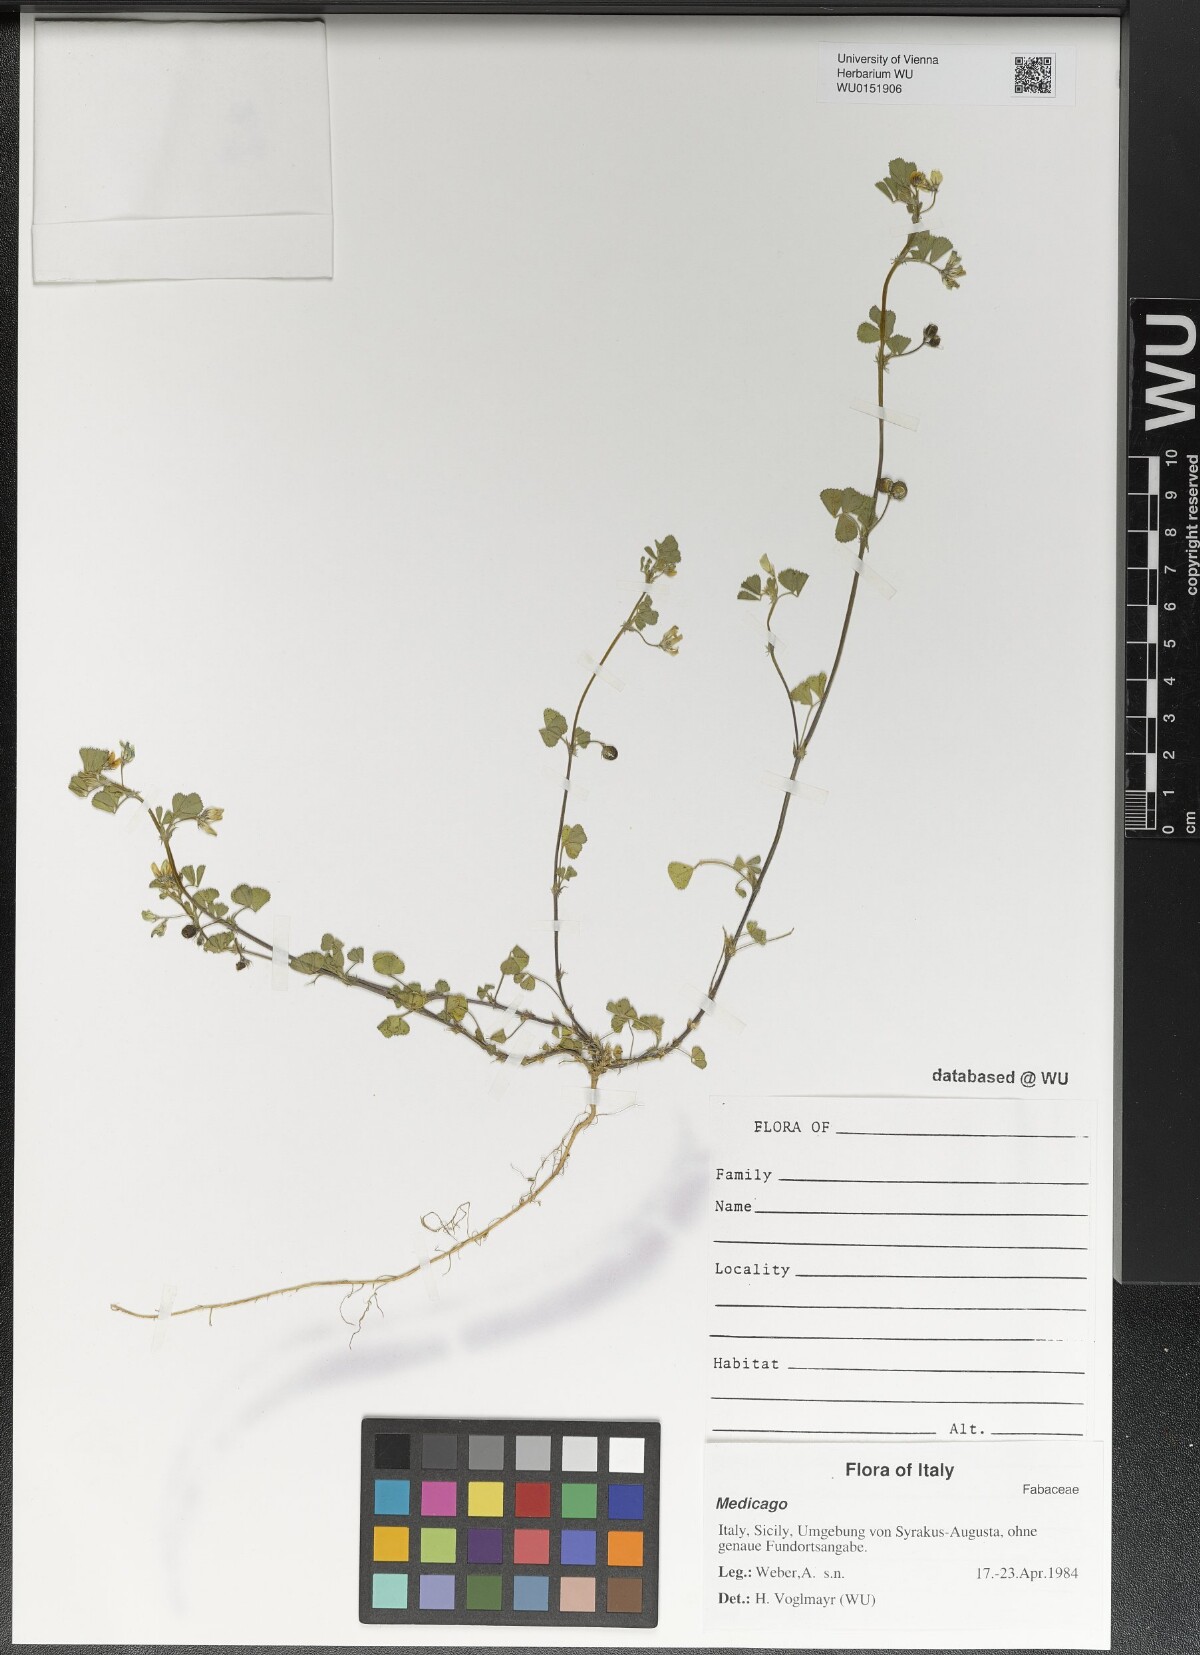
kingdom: Plantae
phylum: Tracheophyta
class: Magnoliopsida
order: Fabales
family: Fabaceae
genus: Medicago
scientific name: Medicago
